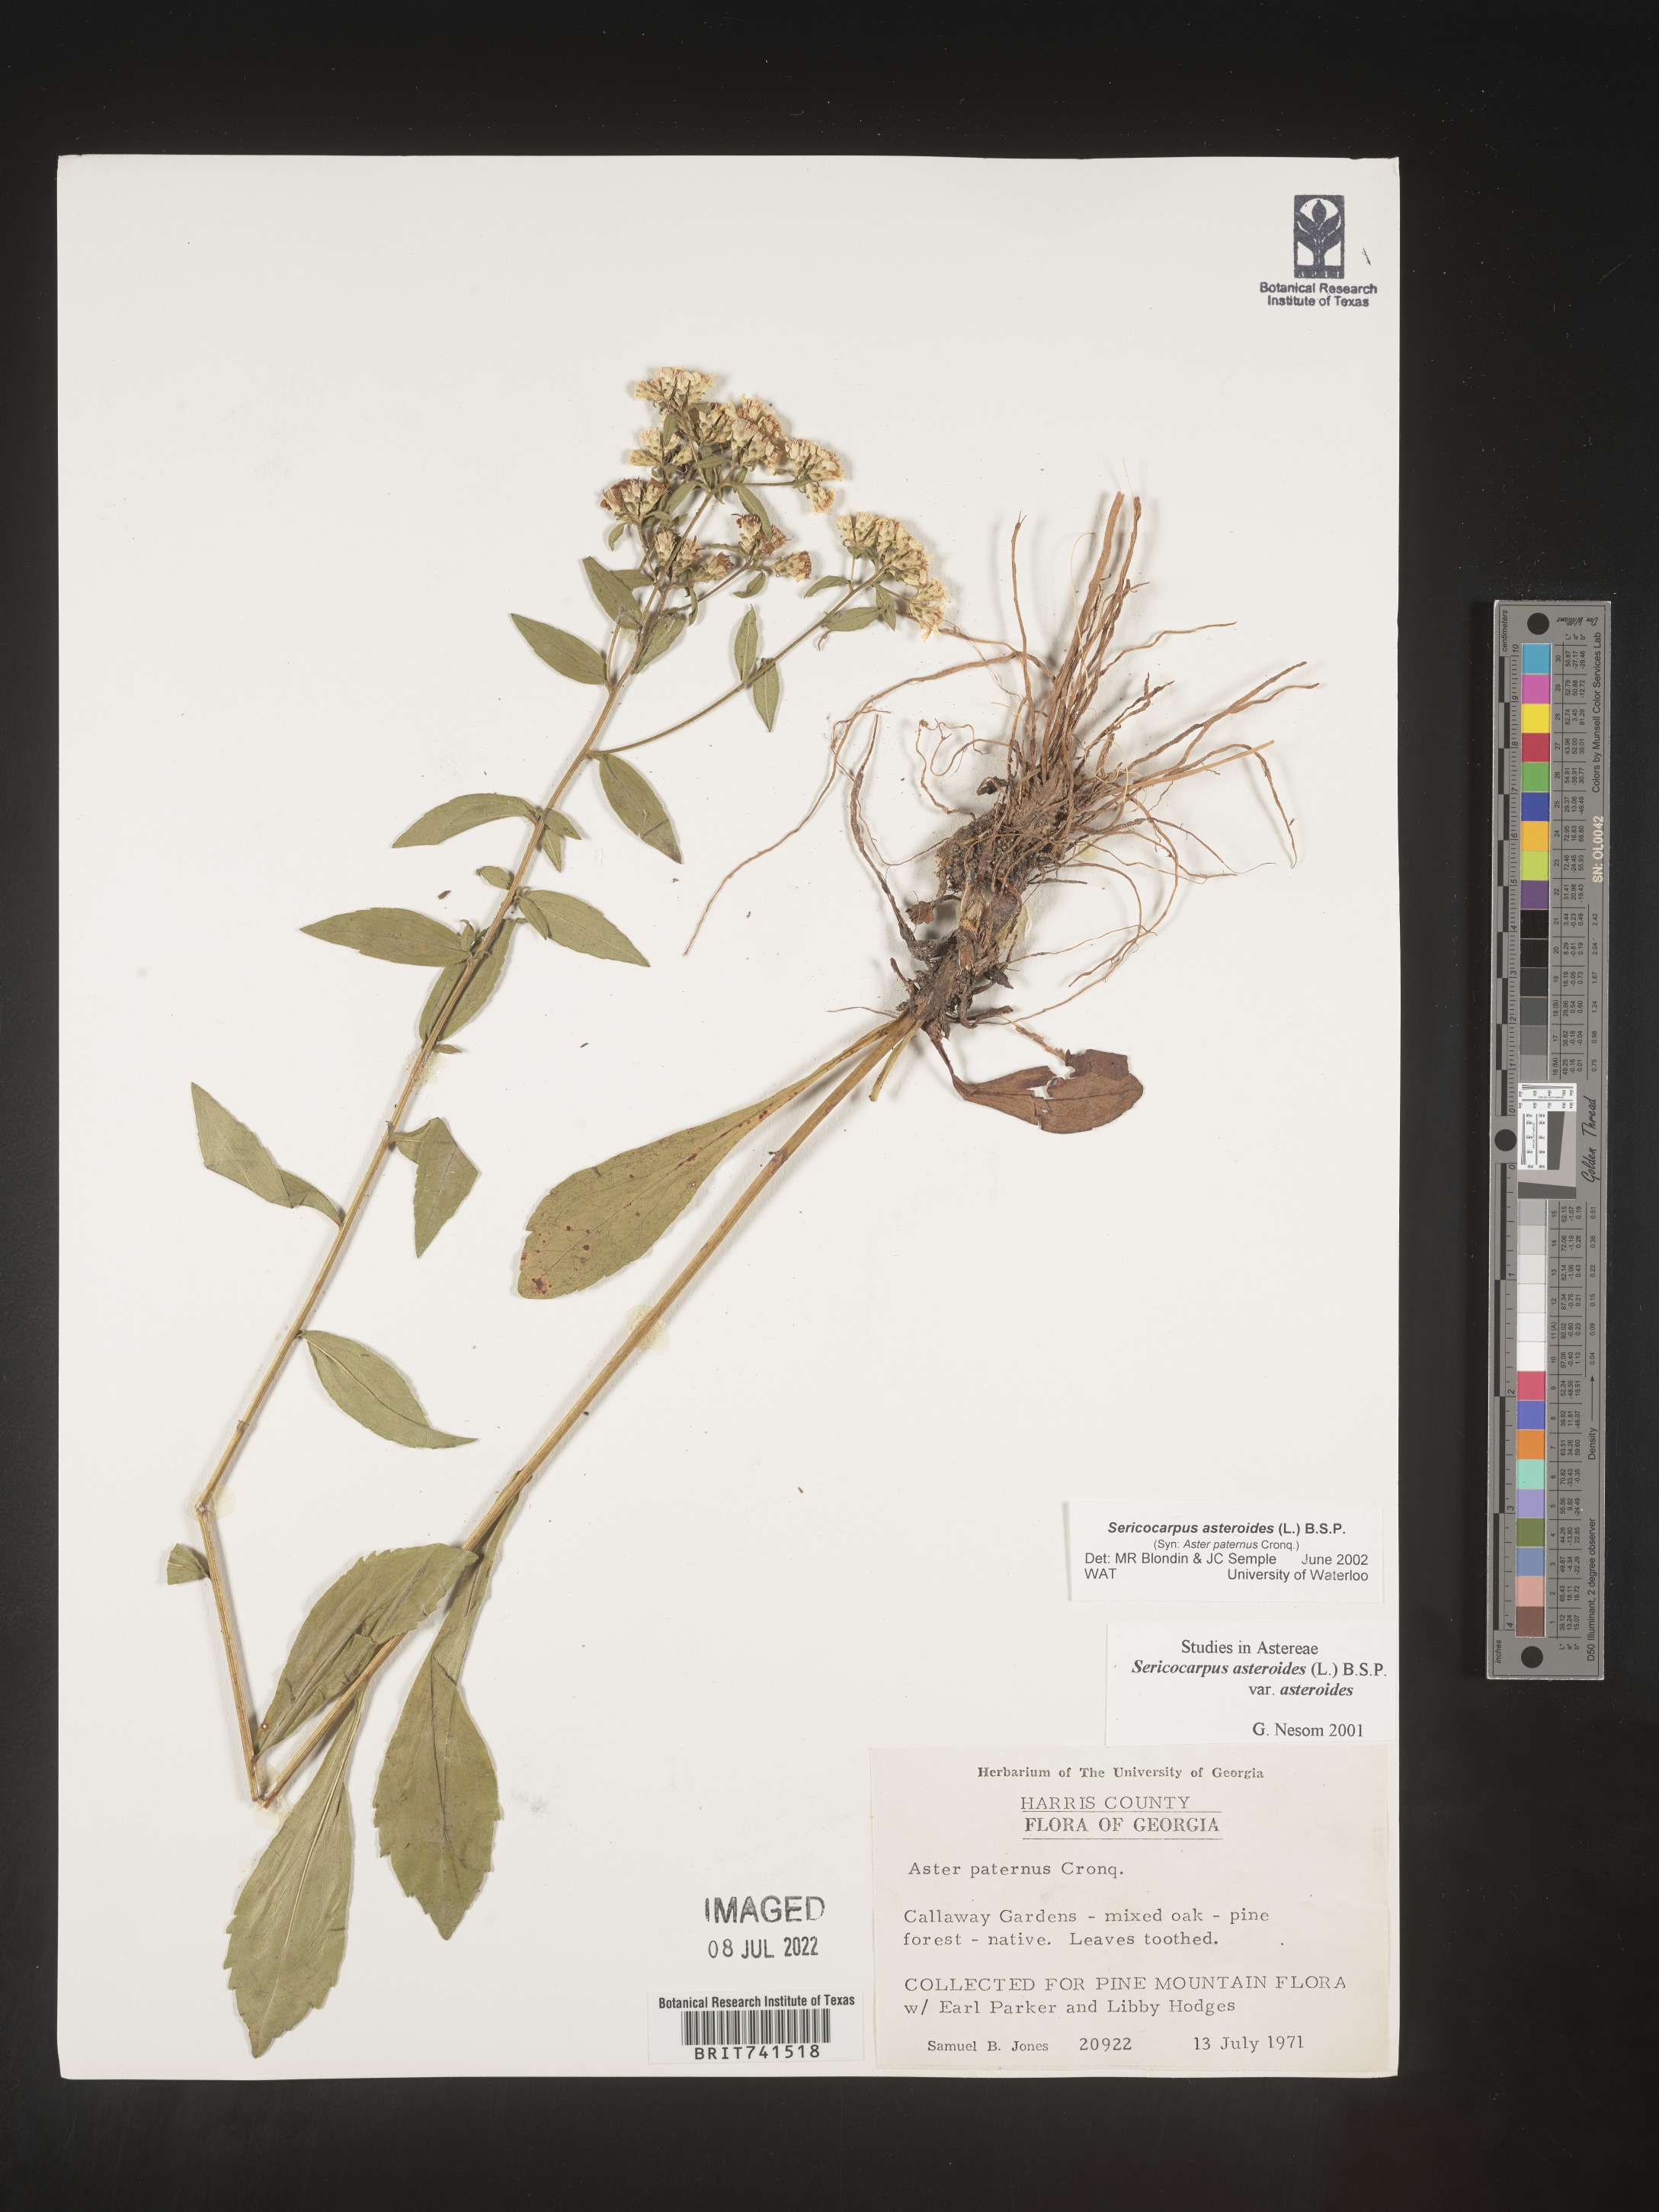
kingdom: Plantae
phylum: Tracheophyta
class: Magnoliopsida
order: Asterales
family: Asteraceae
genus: Sericocarpus
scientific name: Sericocarpus asteroides
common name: Toothed white-top aster
